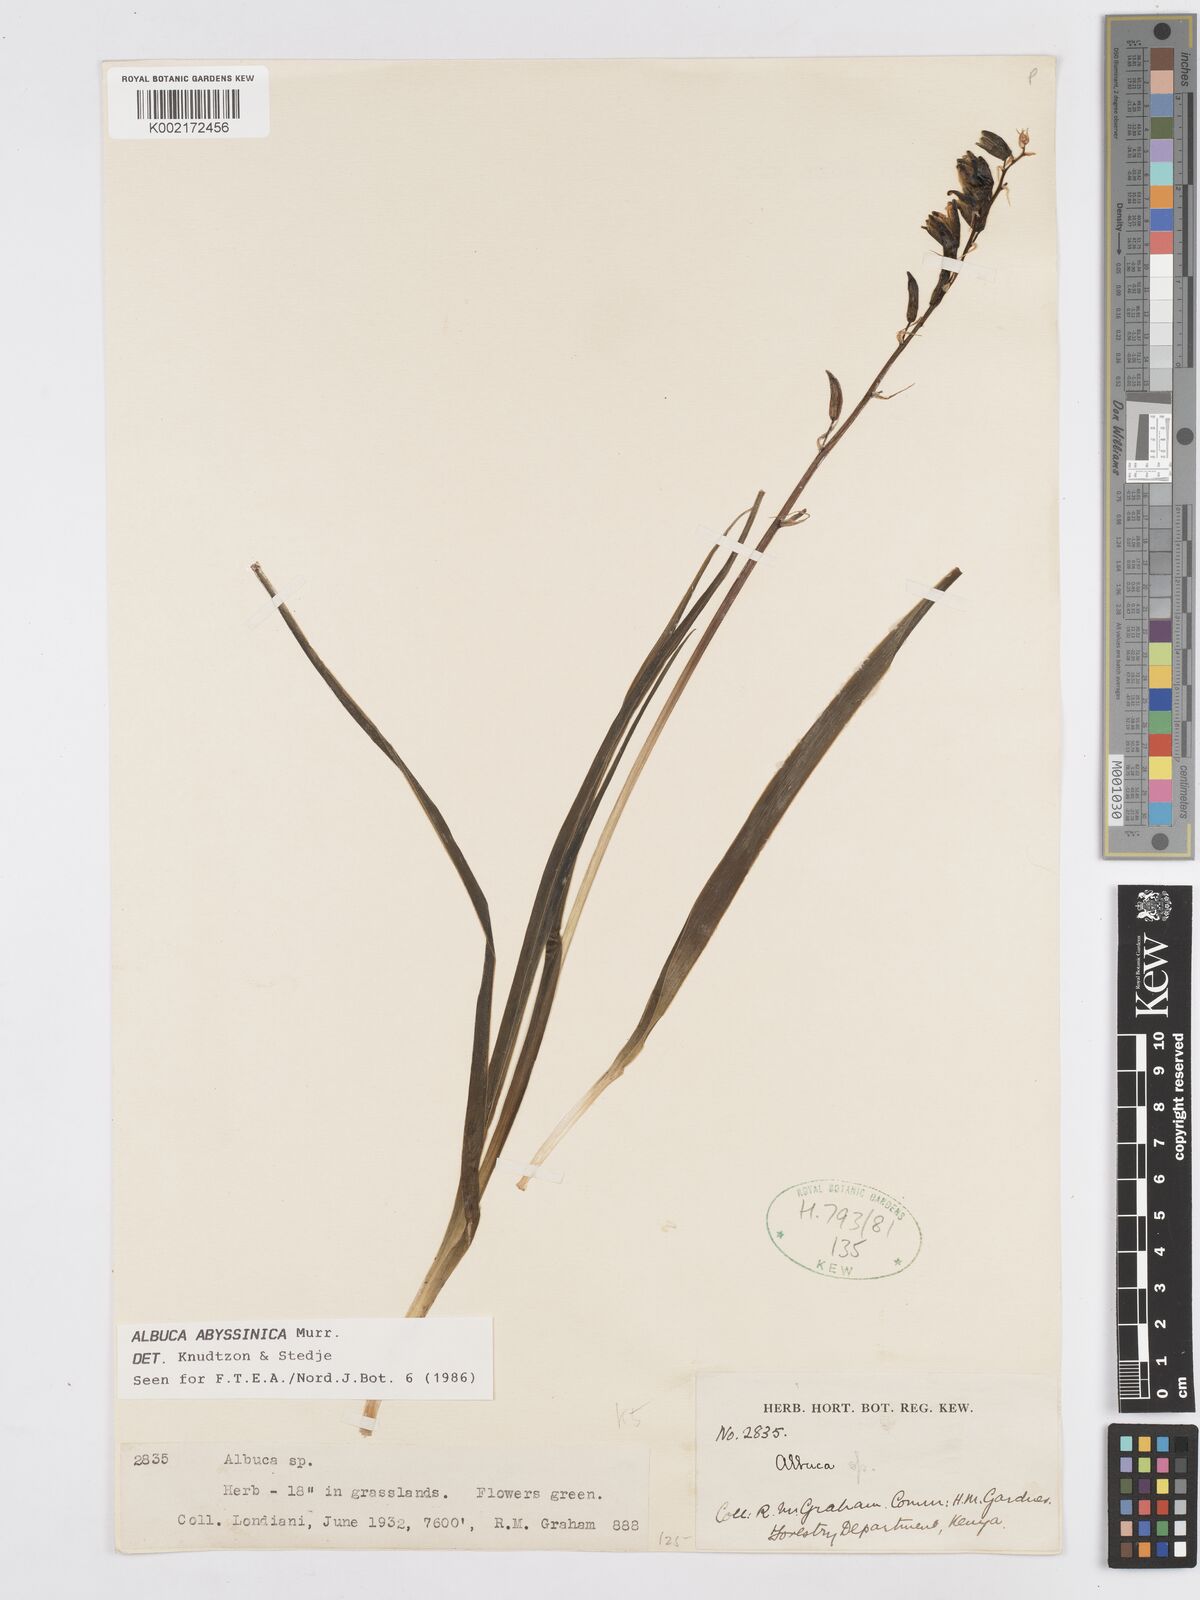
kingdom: Plantae
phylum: Tracheophyta
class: Liliopsida
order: Asparagales
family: Asparagaceae
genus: Albuca
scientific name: Albuca abyssinica
